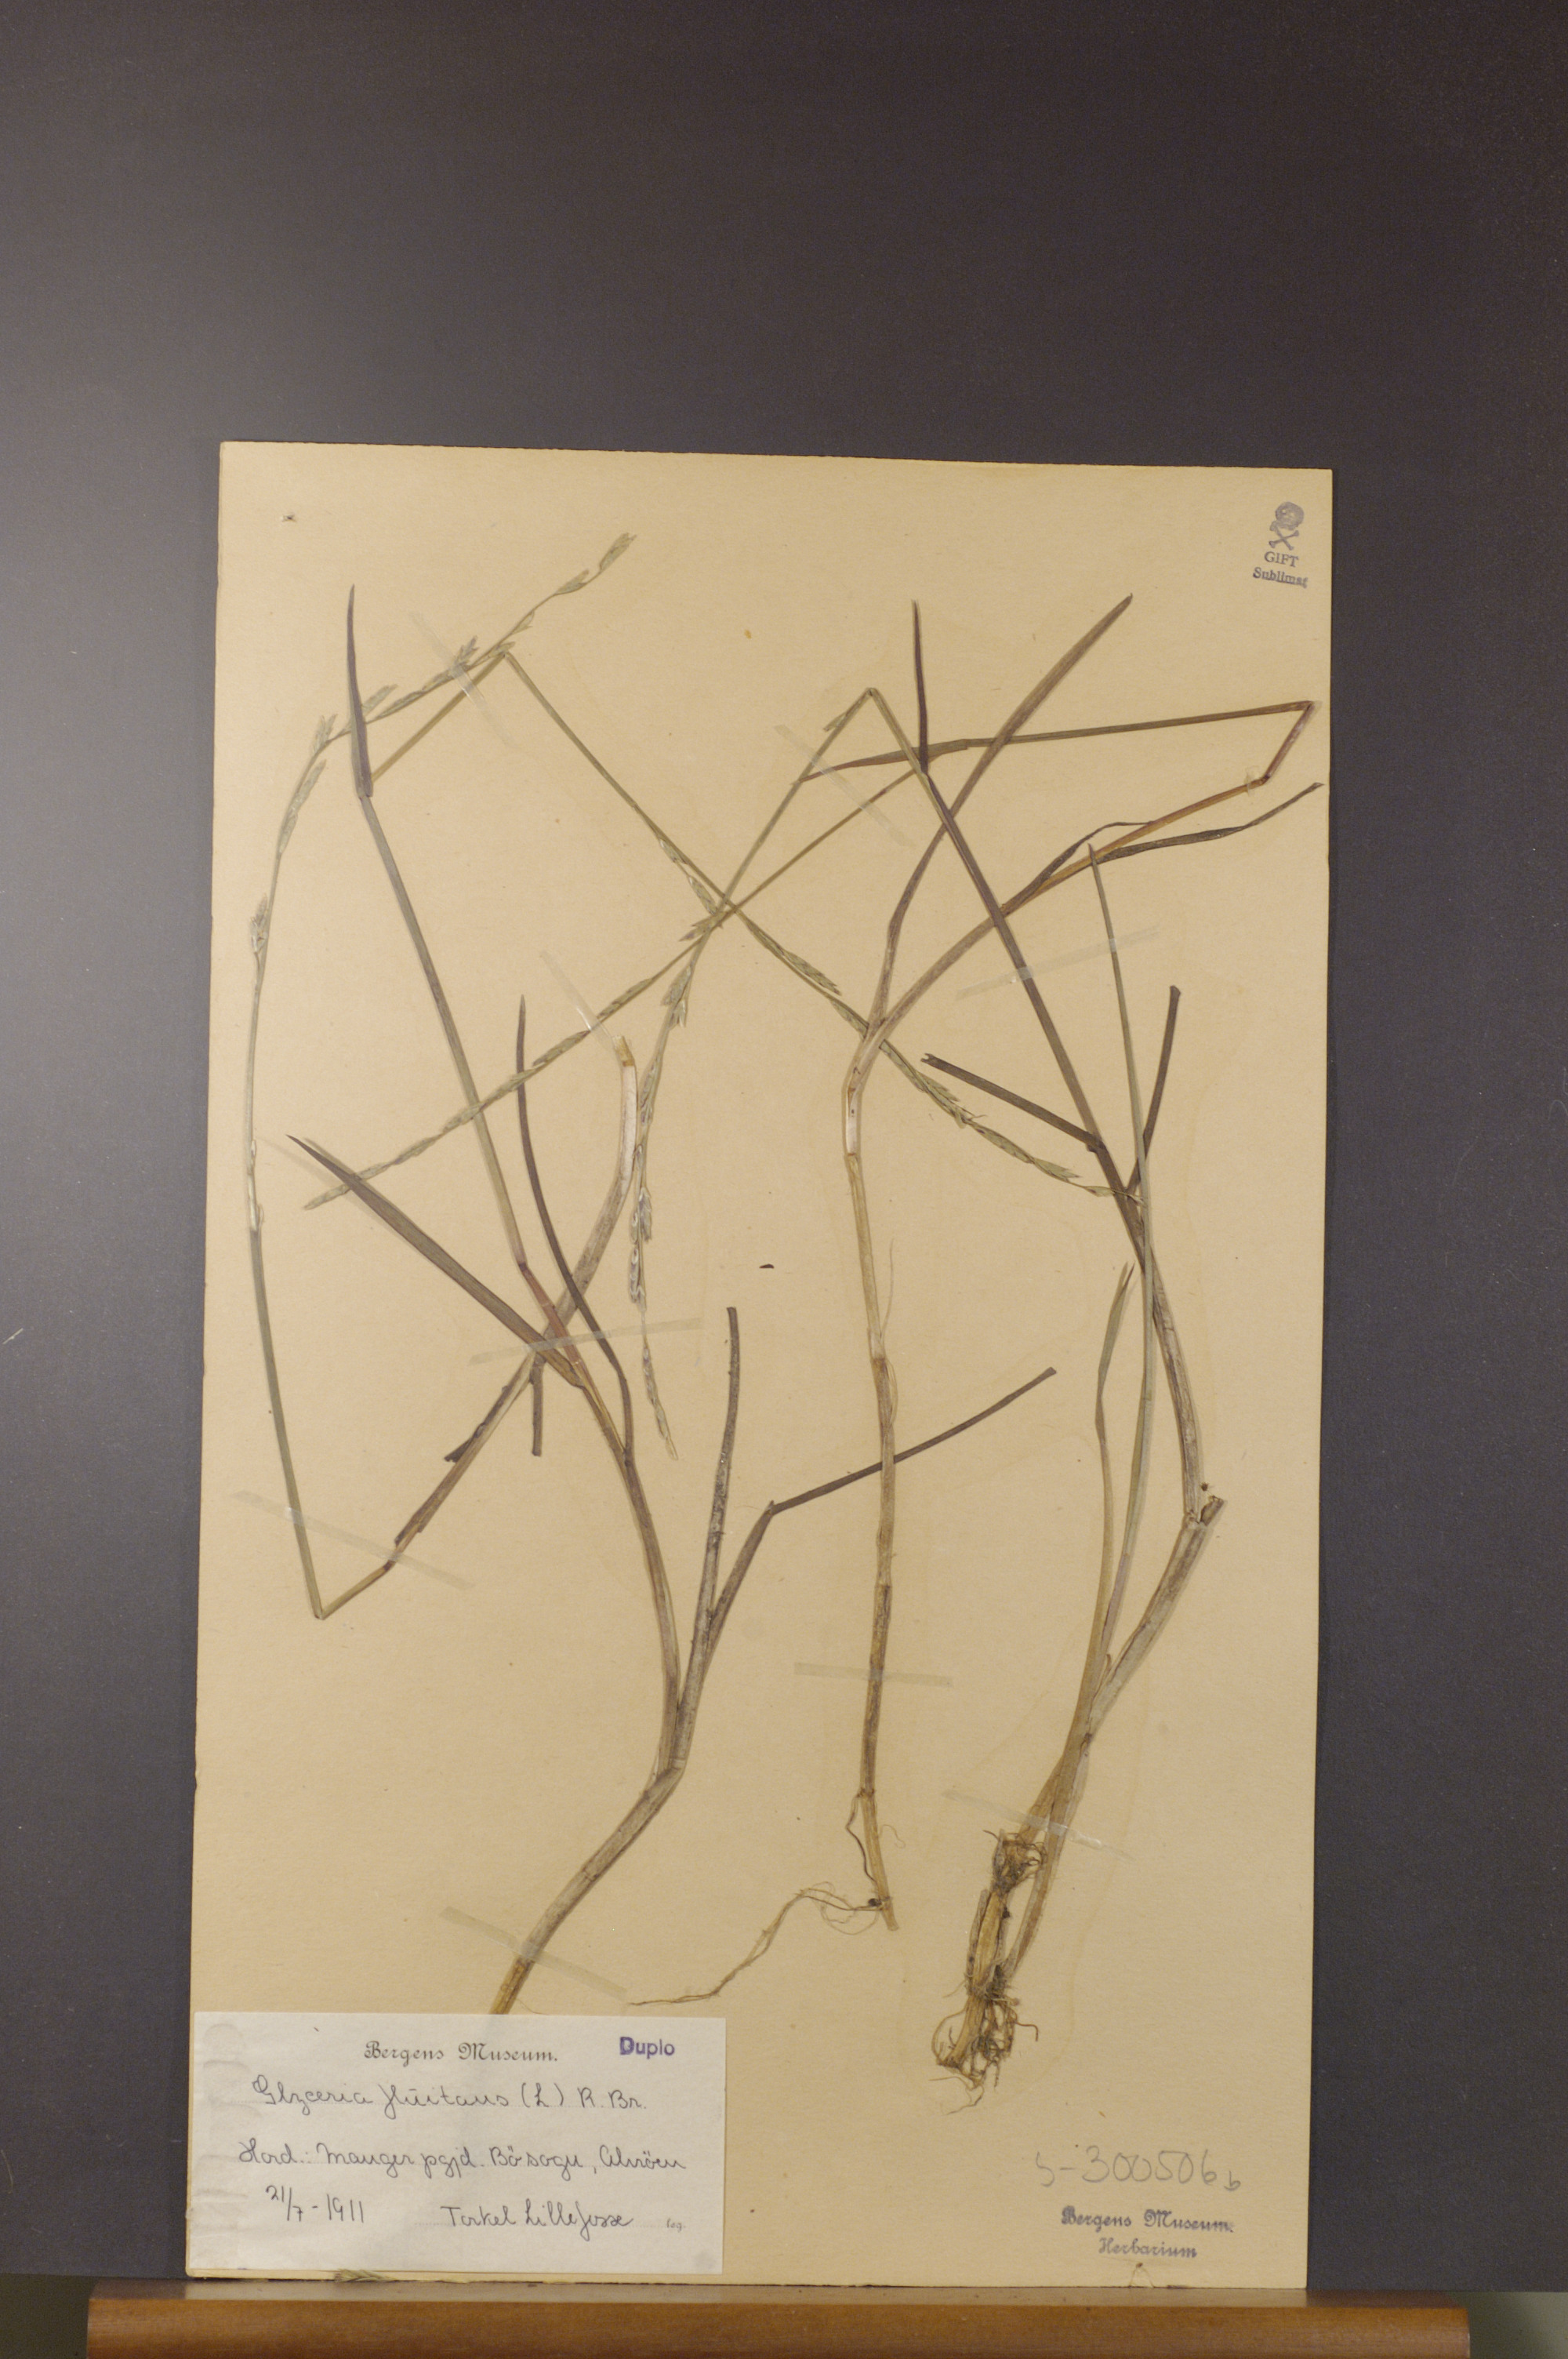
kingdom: Plantae
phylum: Tracheophyta
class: Liliopsida
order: Poales
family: Poaceae
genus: Glyceria
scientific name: Glyceria fluitans
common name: Floating sweet-grass
